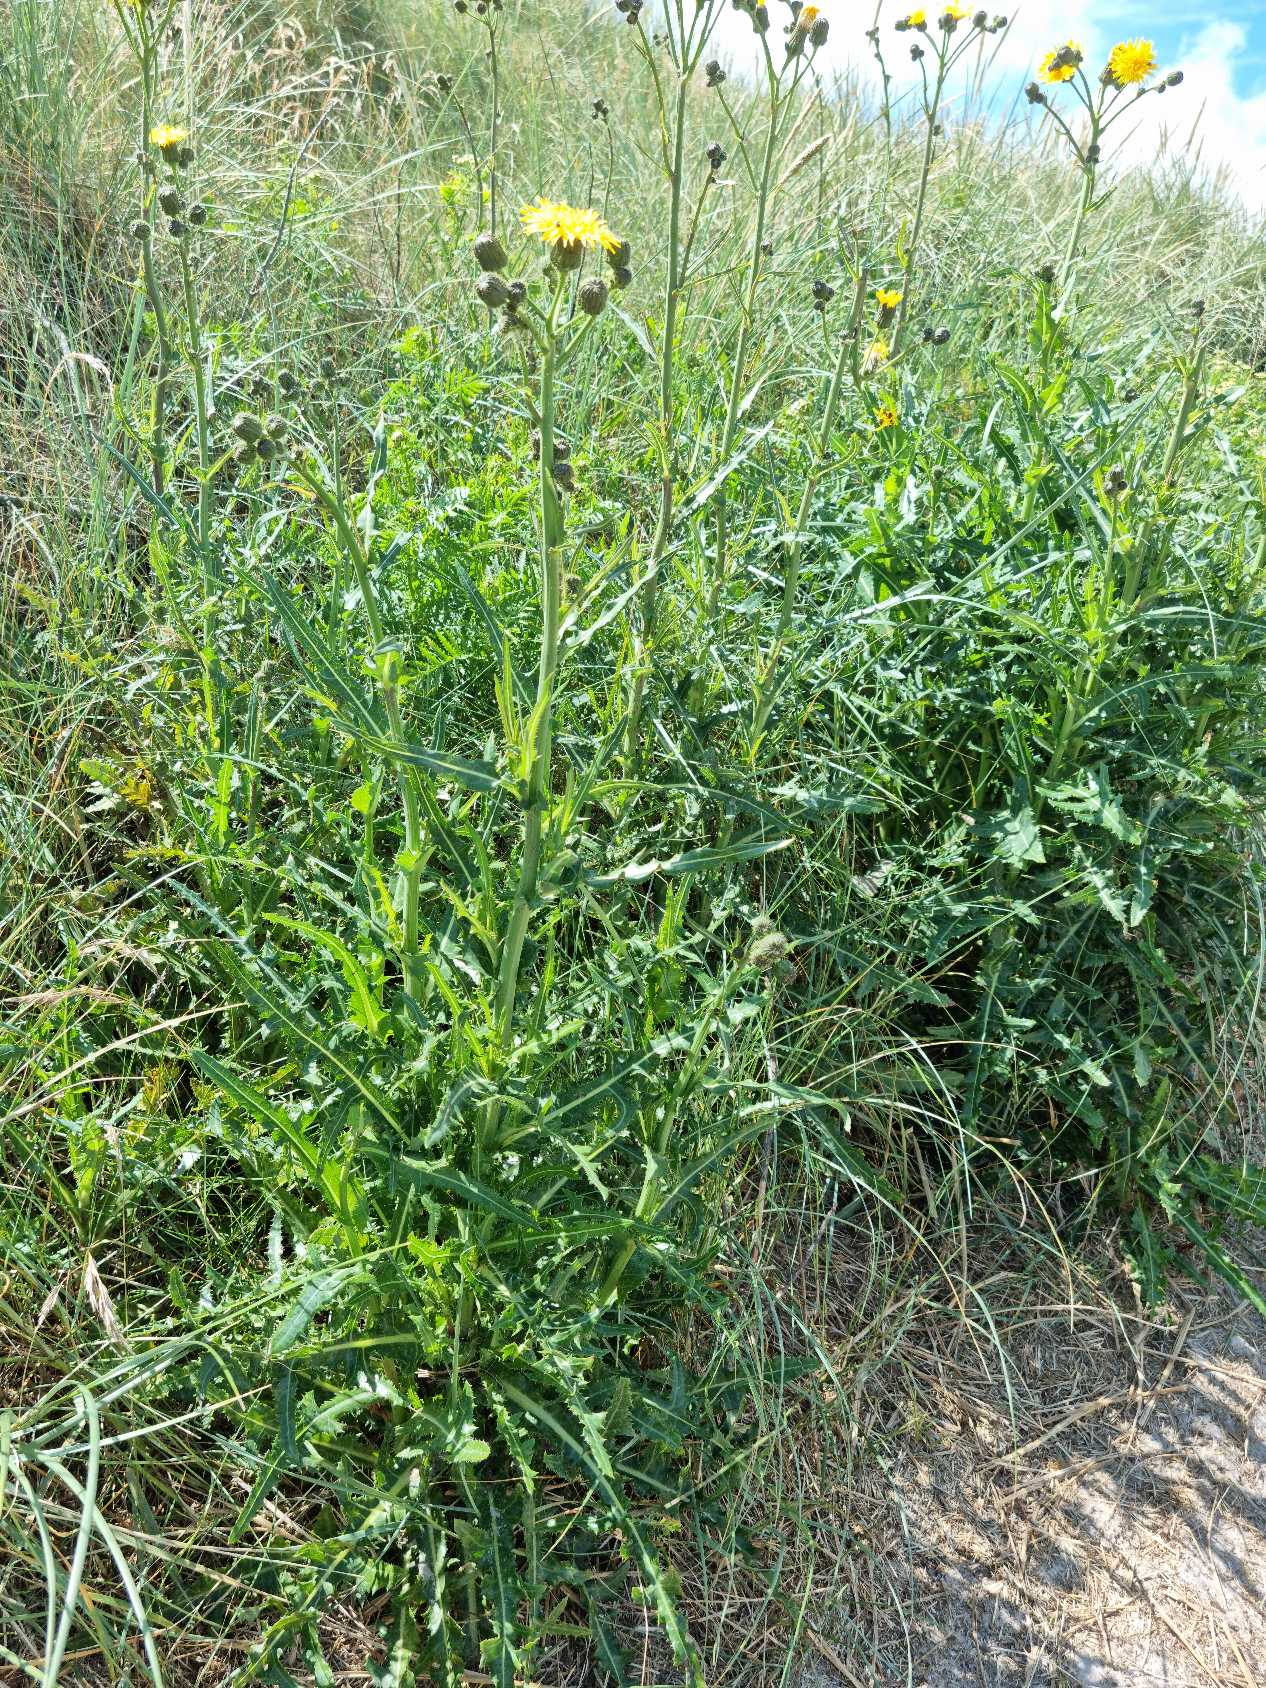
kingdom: Plantae
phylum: Tracheophyta
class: Magnoliopsida
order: Asterales
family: Asteraceae
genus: Sonchus
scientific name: Sonchus arvensis
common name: Almindelig ager-svinemælk
